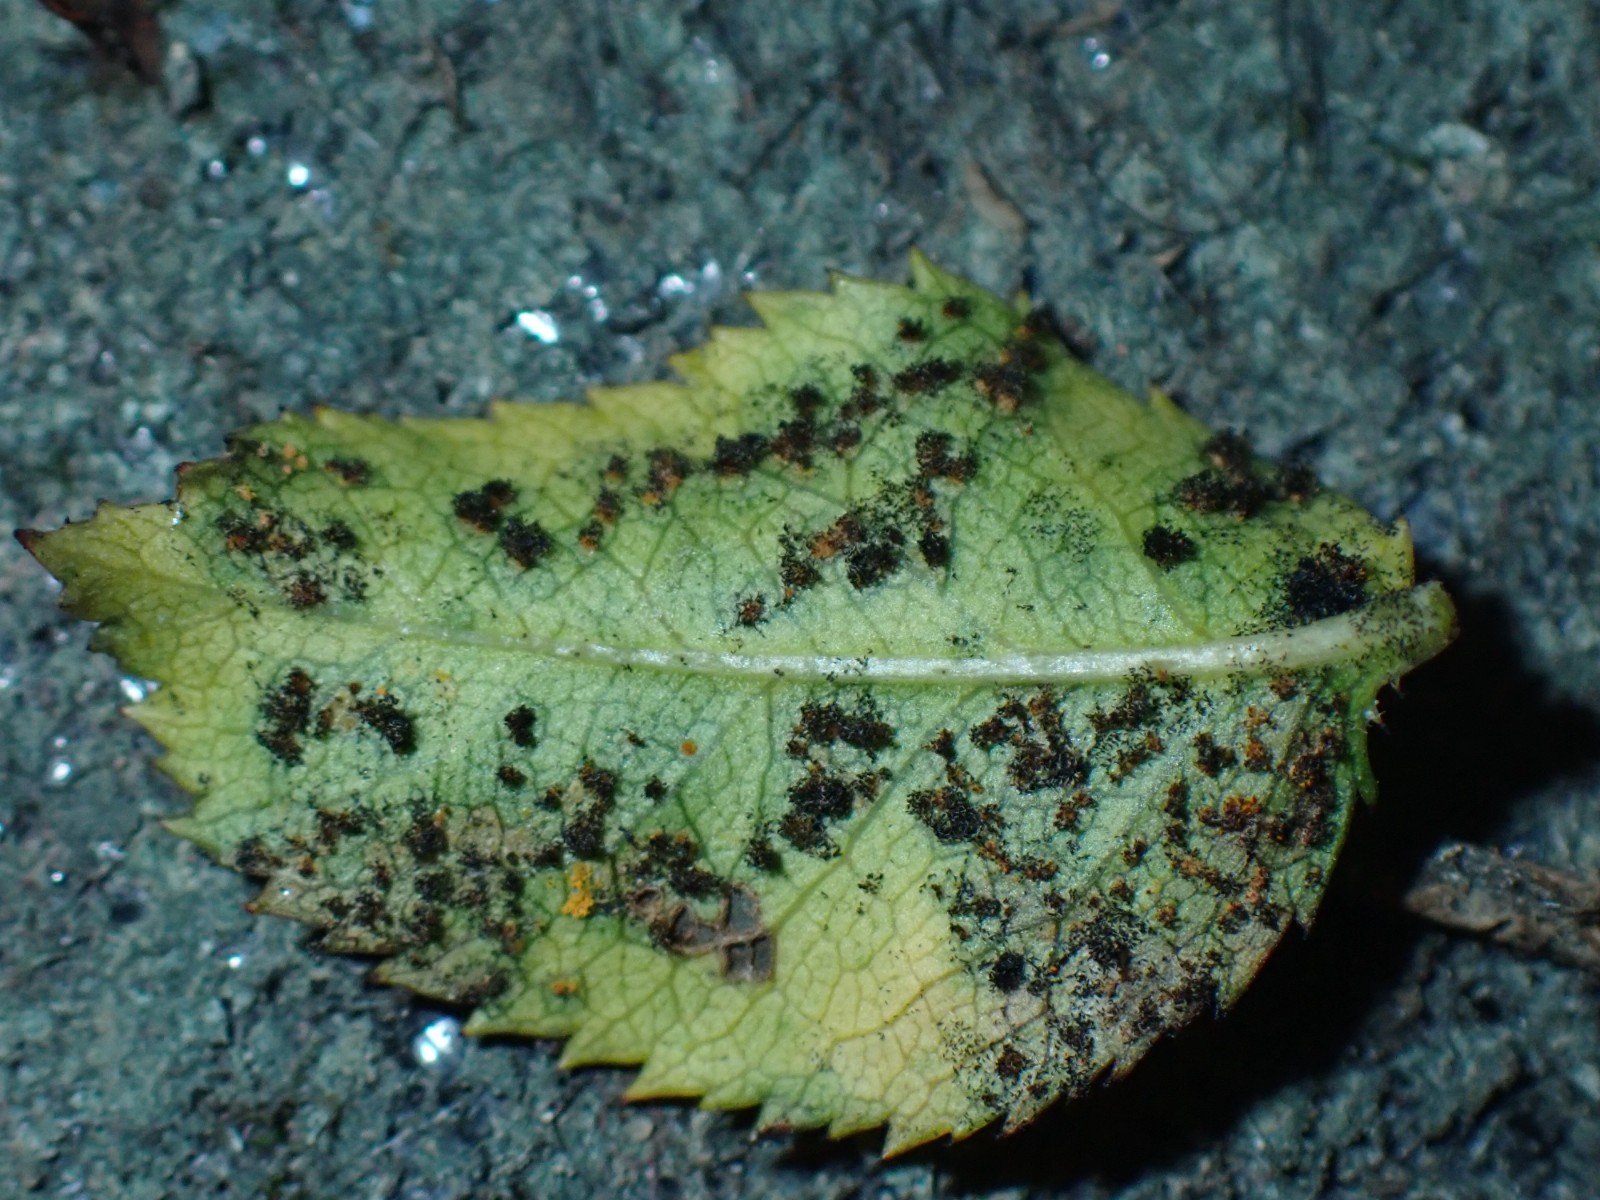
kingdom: Fungi
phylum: Basidiomycota
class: Pucciniomycetes
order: Pucciniales
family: Phragmidiaceae
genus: Phragmidium
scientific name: Phragmidium tuberculatum
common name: Rose rust
